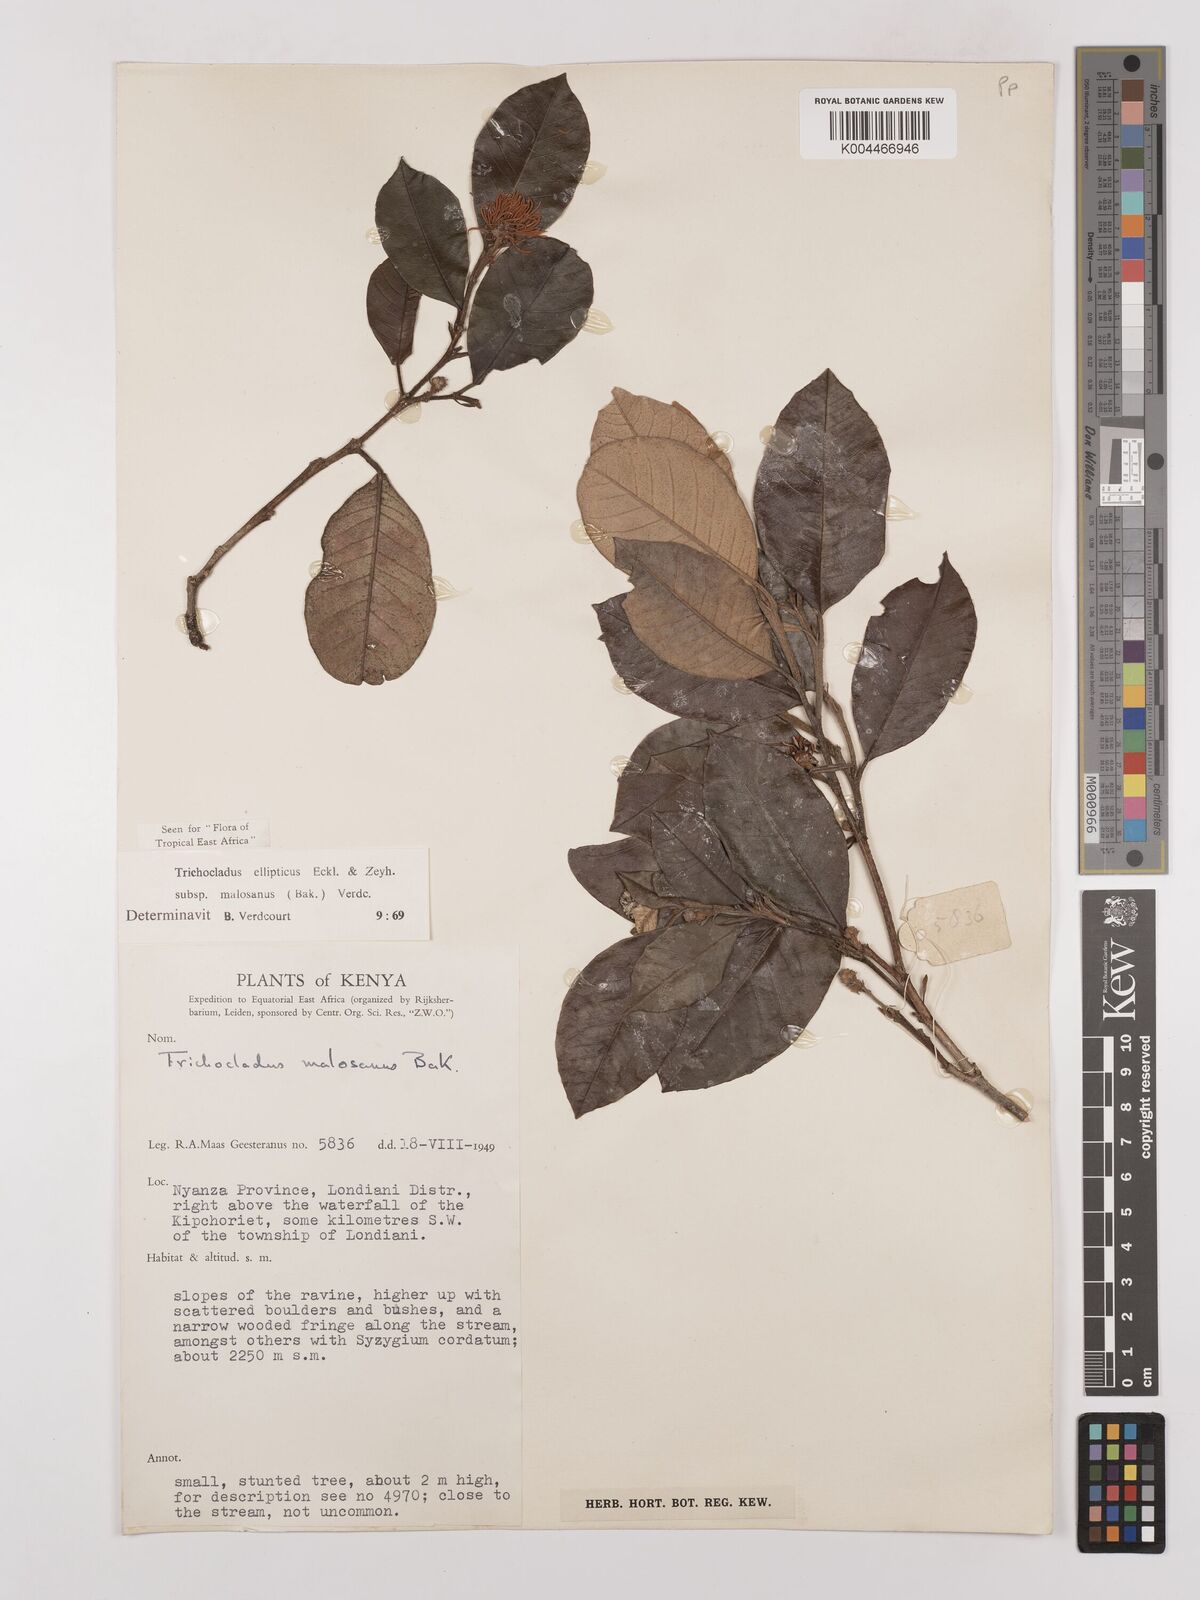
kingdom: Plantae
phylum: Tracheophyta
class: Magnoliopsida
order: Saxifragales
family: Hamamelidaceae
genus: Trichocladus
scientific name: Trichocladus ellipticus
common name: White witch-hazel
